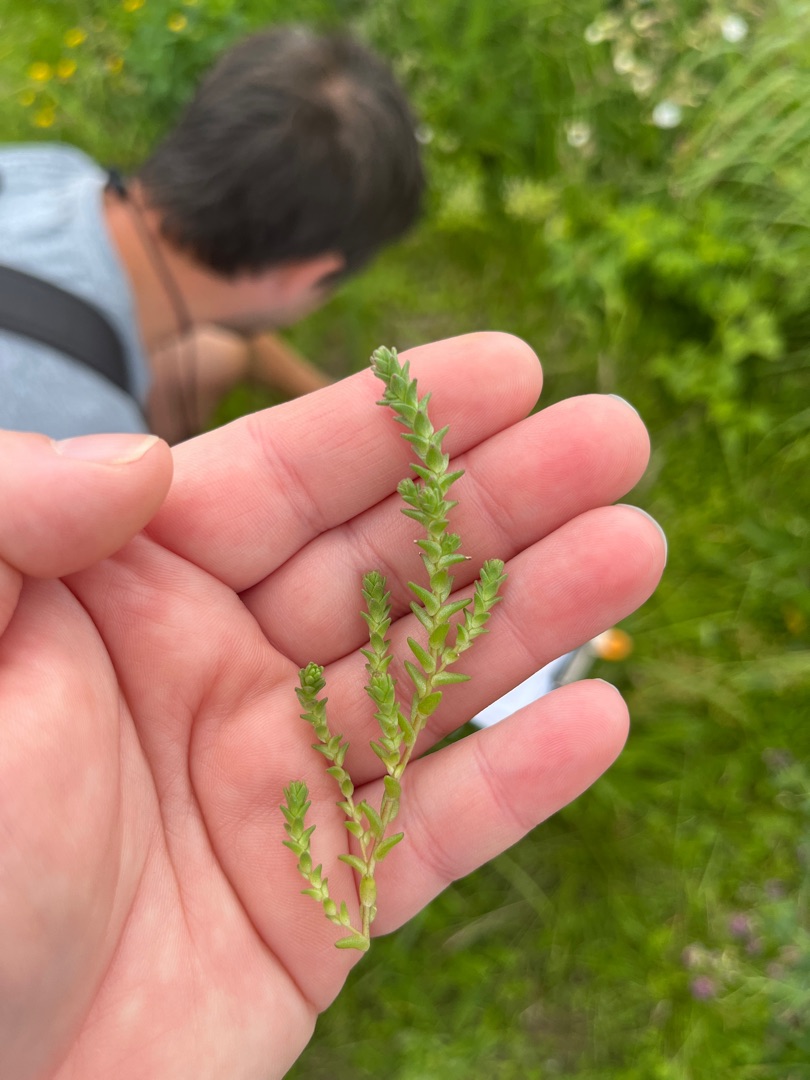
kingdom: Plantae
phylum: Tracheophyta
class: Magnoliopsida
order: Saxifragales
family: Crassulaceae
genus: Sedum
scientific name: Sedum acre
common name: Bidende stenurt
